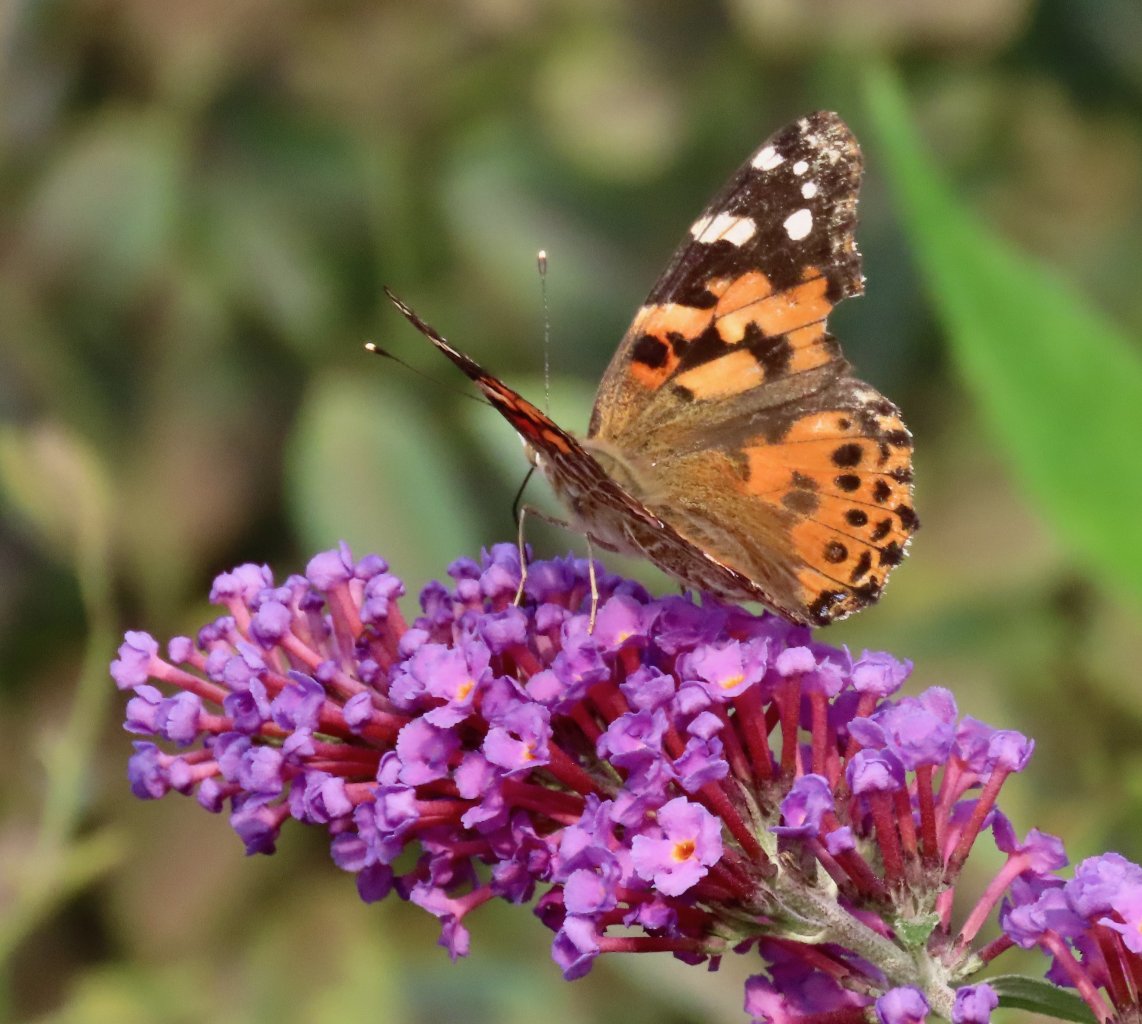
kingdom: Animalia
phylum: Arthropoda
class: Insecta
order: Lepidoptera
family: Nymphalidae
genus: Vanessa
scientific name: Vanessa cardui
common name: Painted Lady
